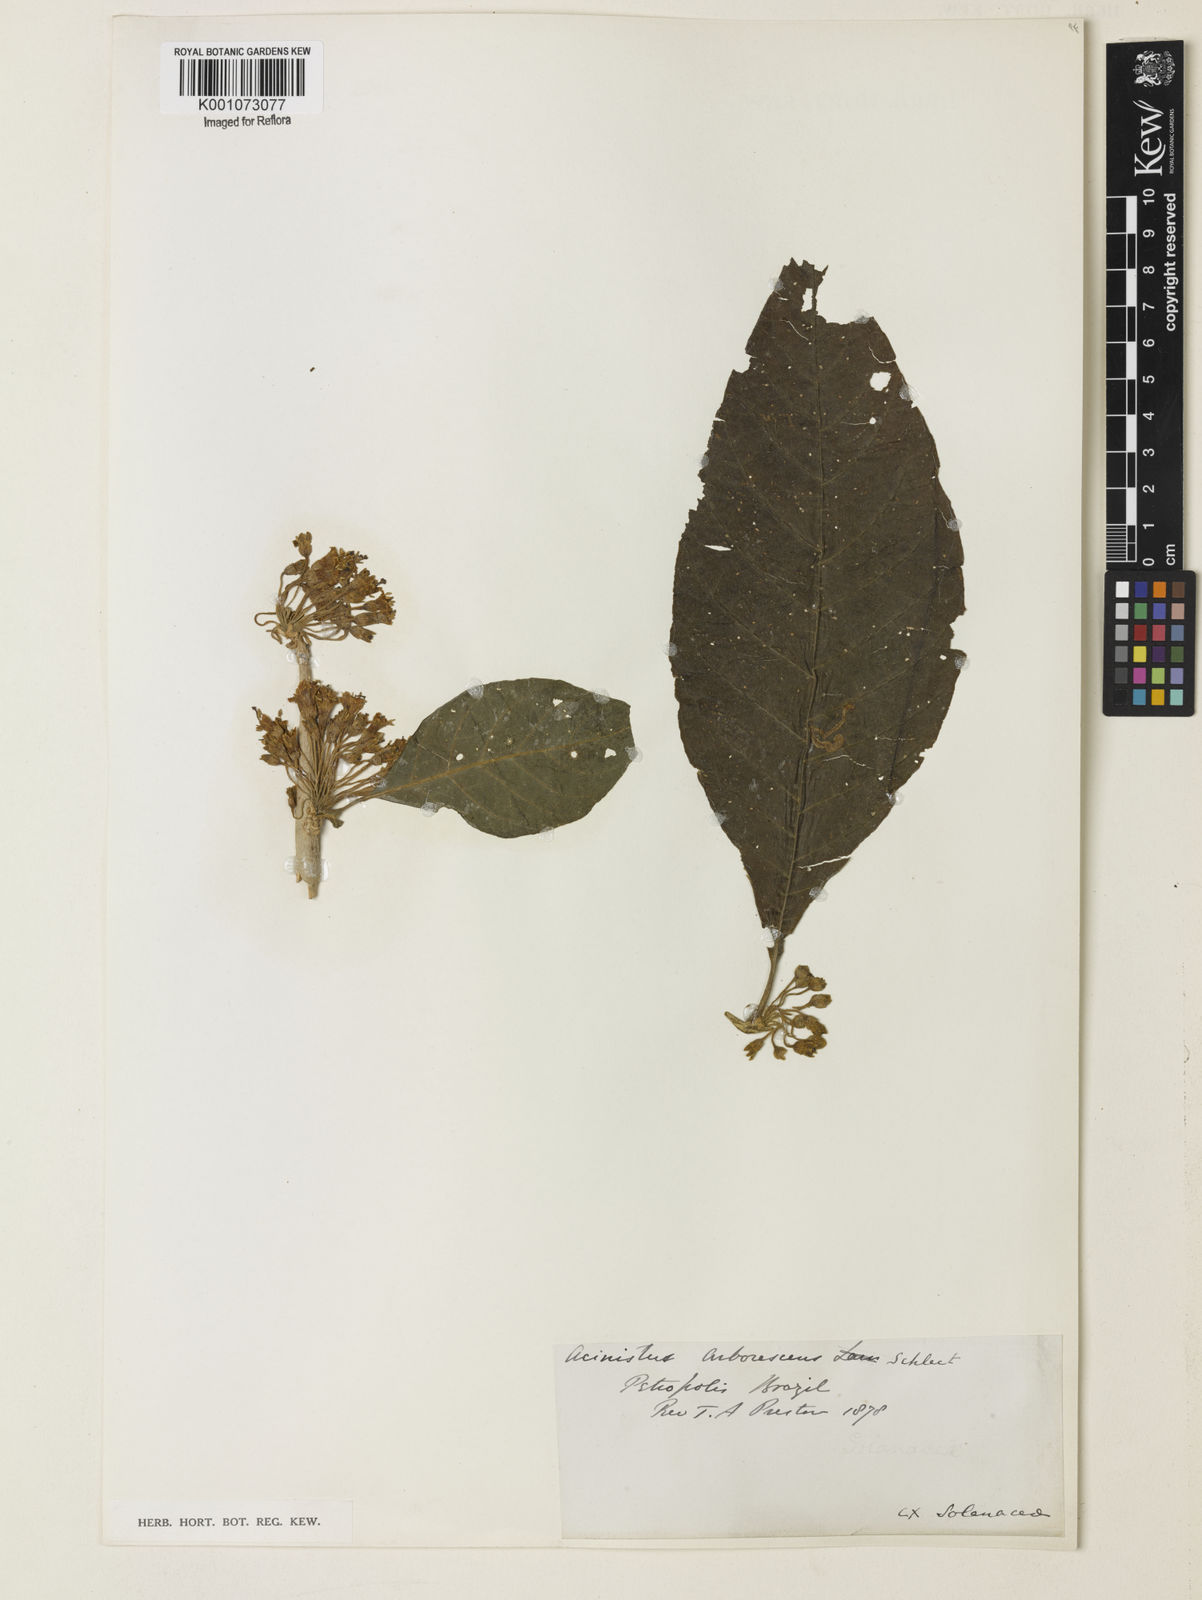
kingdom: Plantae
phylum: Tracheophyta
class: Magnoliopsida
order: Solanales
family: Solanaceae
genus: Iochroma
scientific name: Iochroma arborescens
